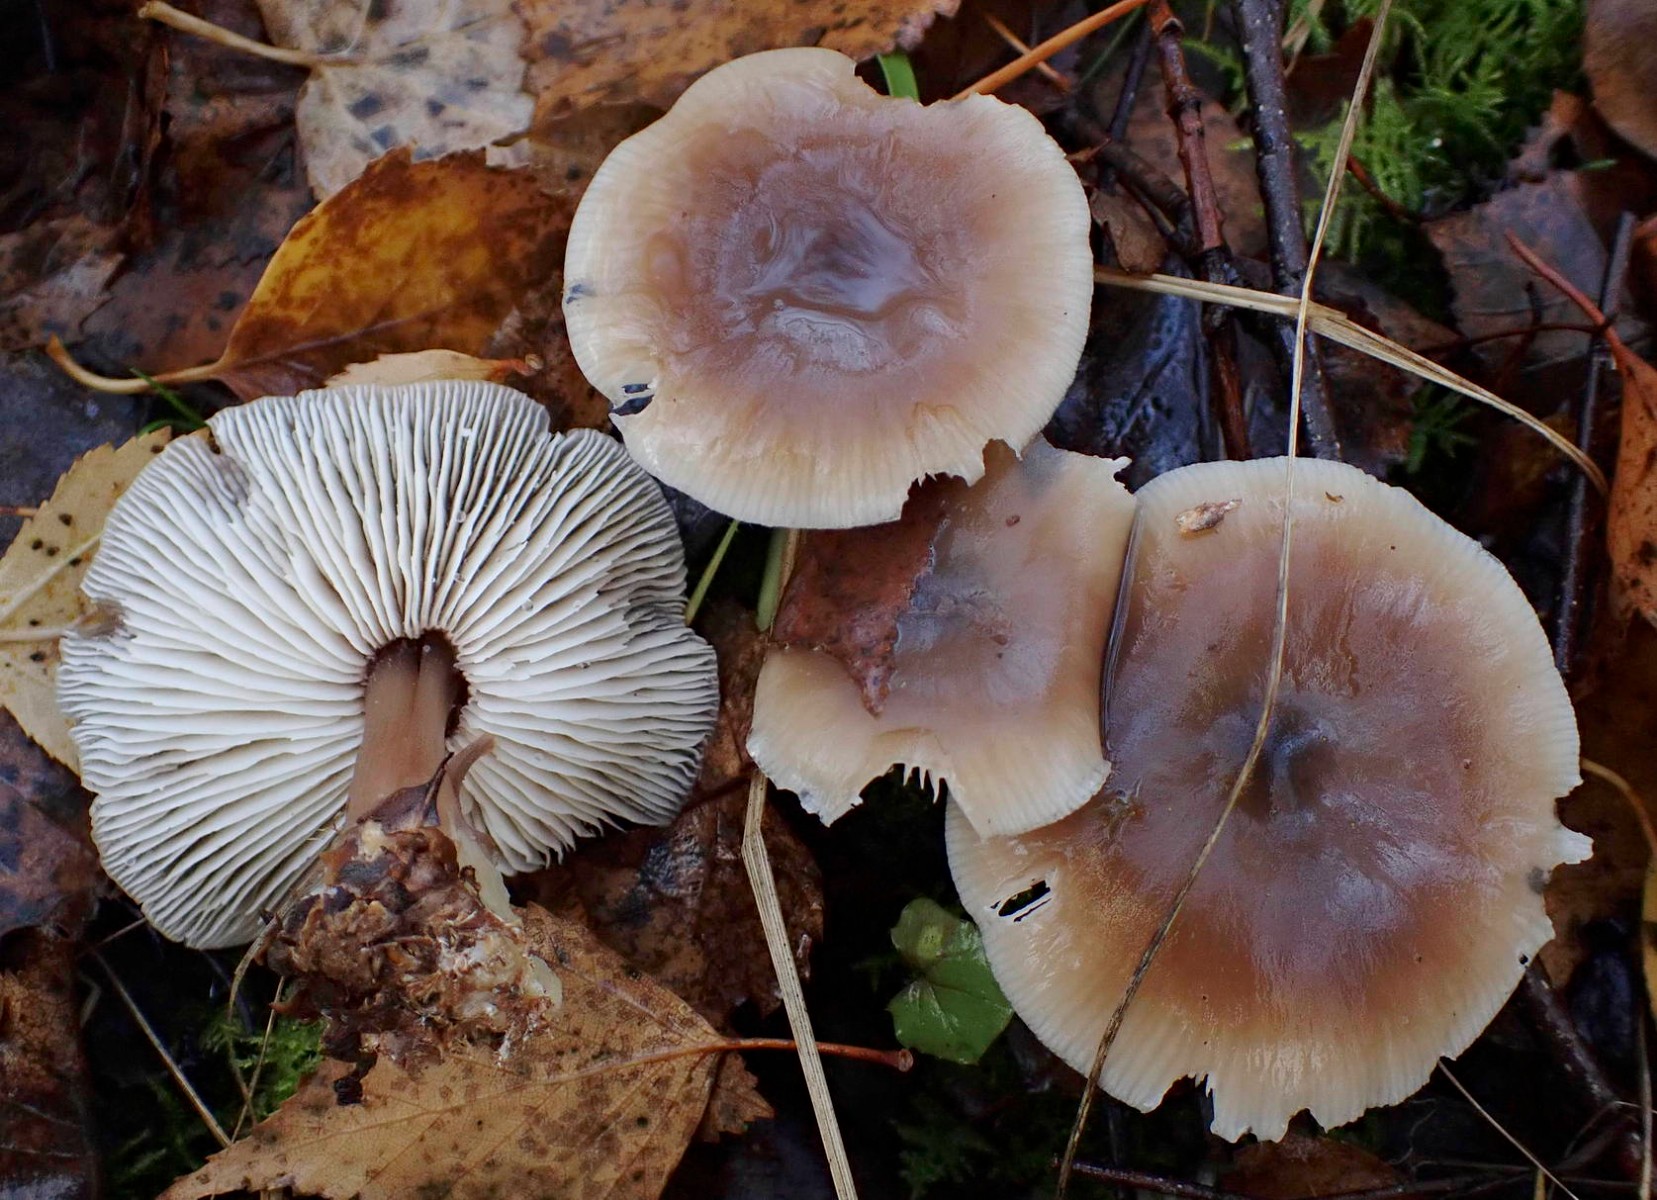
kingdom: Fungi
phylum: Basidiomycota
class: Agaricomycetes
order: Agaricales
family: Omphalotaceae
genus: Rhodocollybia
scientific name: Rhodocollybia asema
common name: horngrå fladhat
